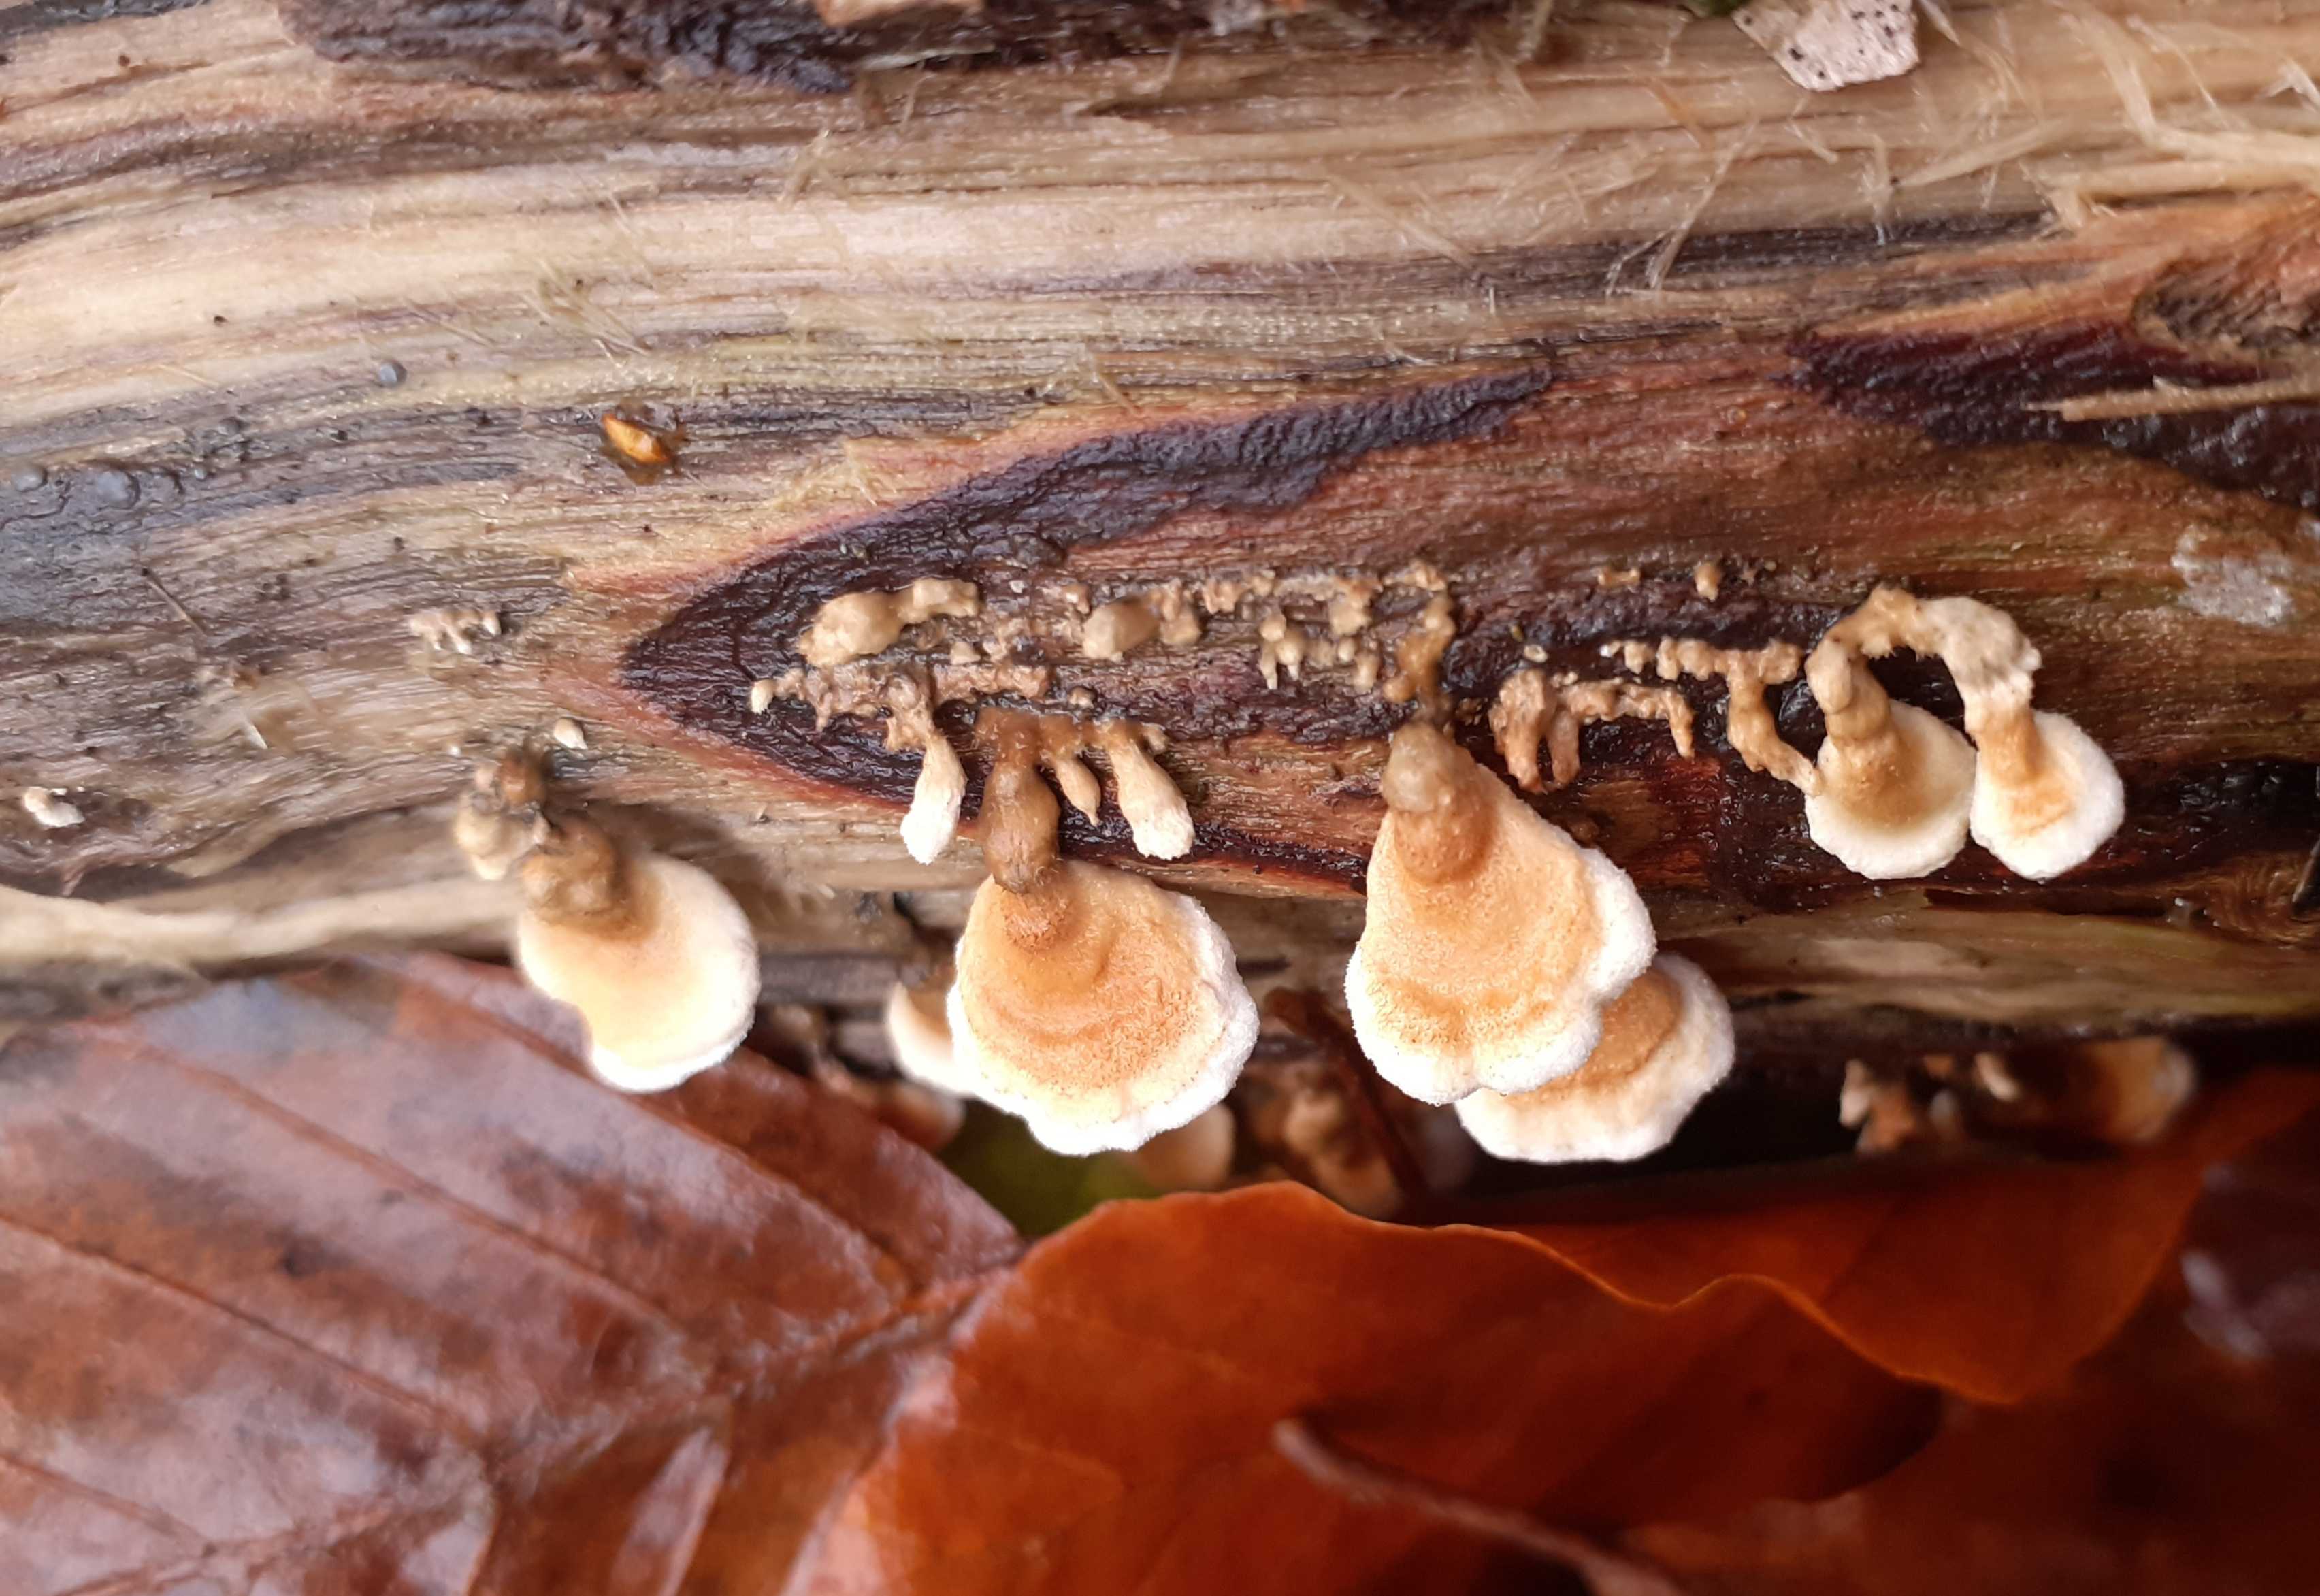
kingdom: Fungi
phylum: Basidiomycota
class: Agaricomycetes
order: Amylocorticiales
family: Amylocorticiaceae
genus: Plicaturopsis
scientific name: Plicaturopsis crispa
